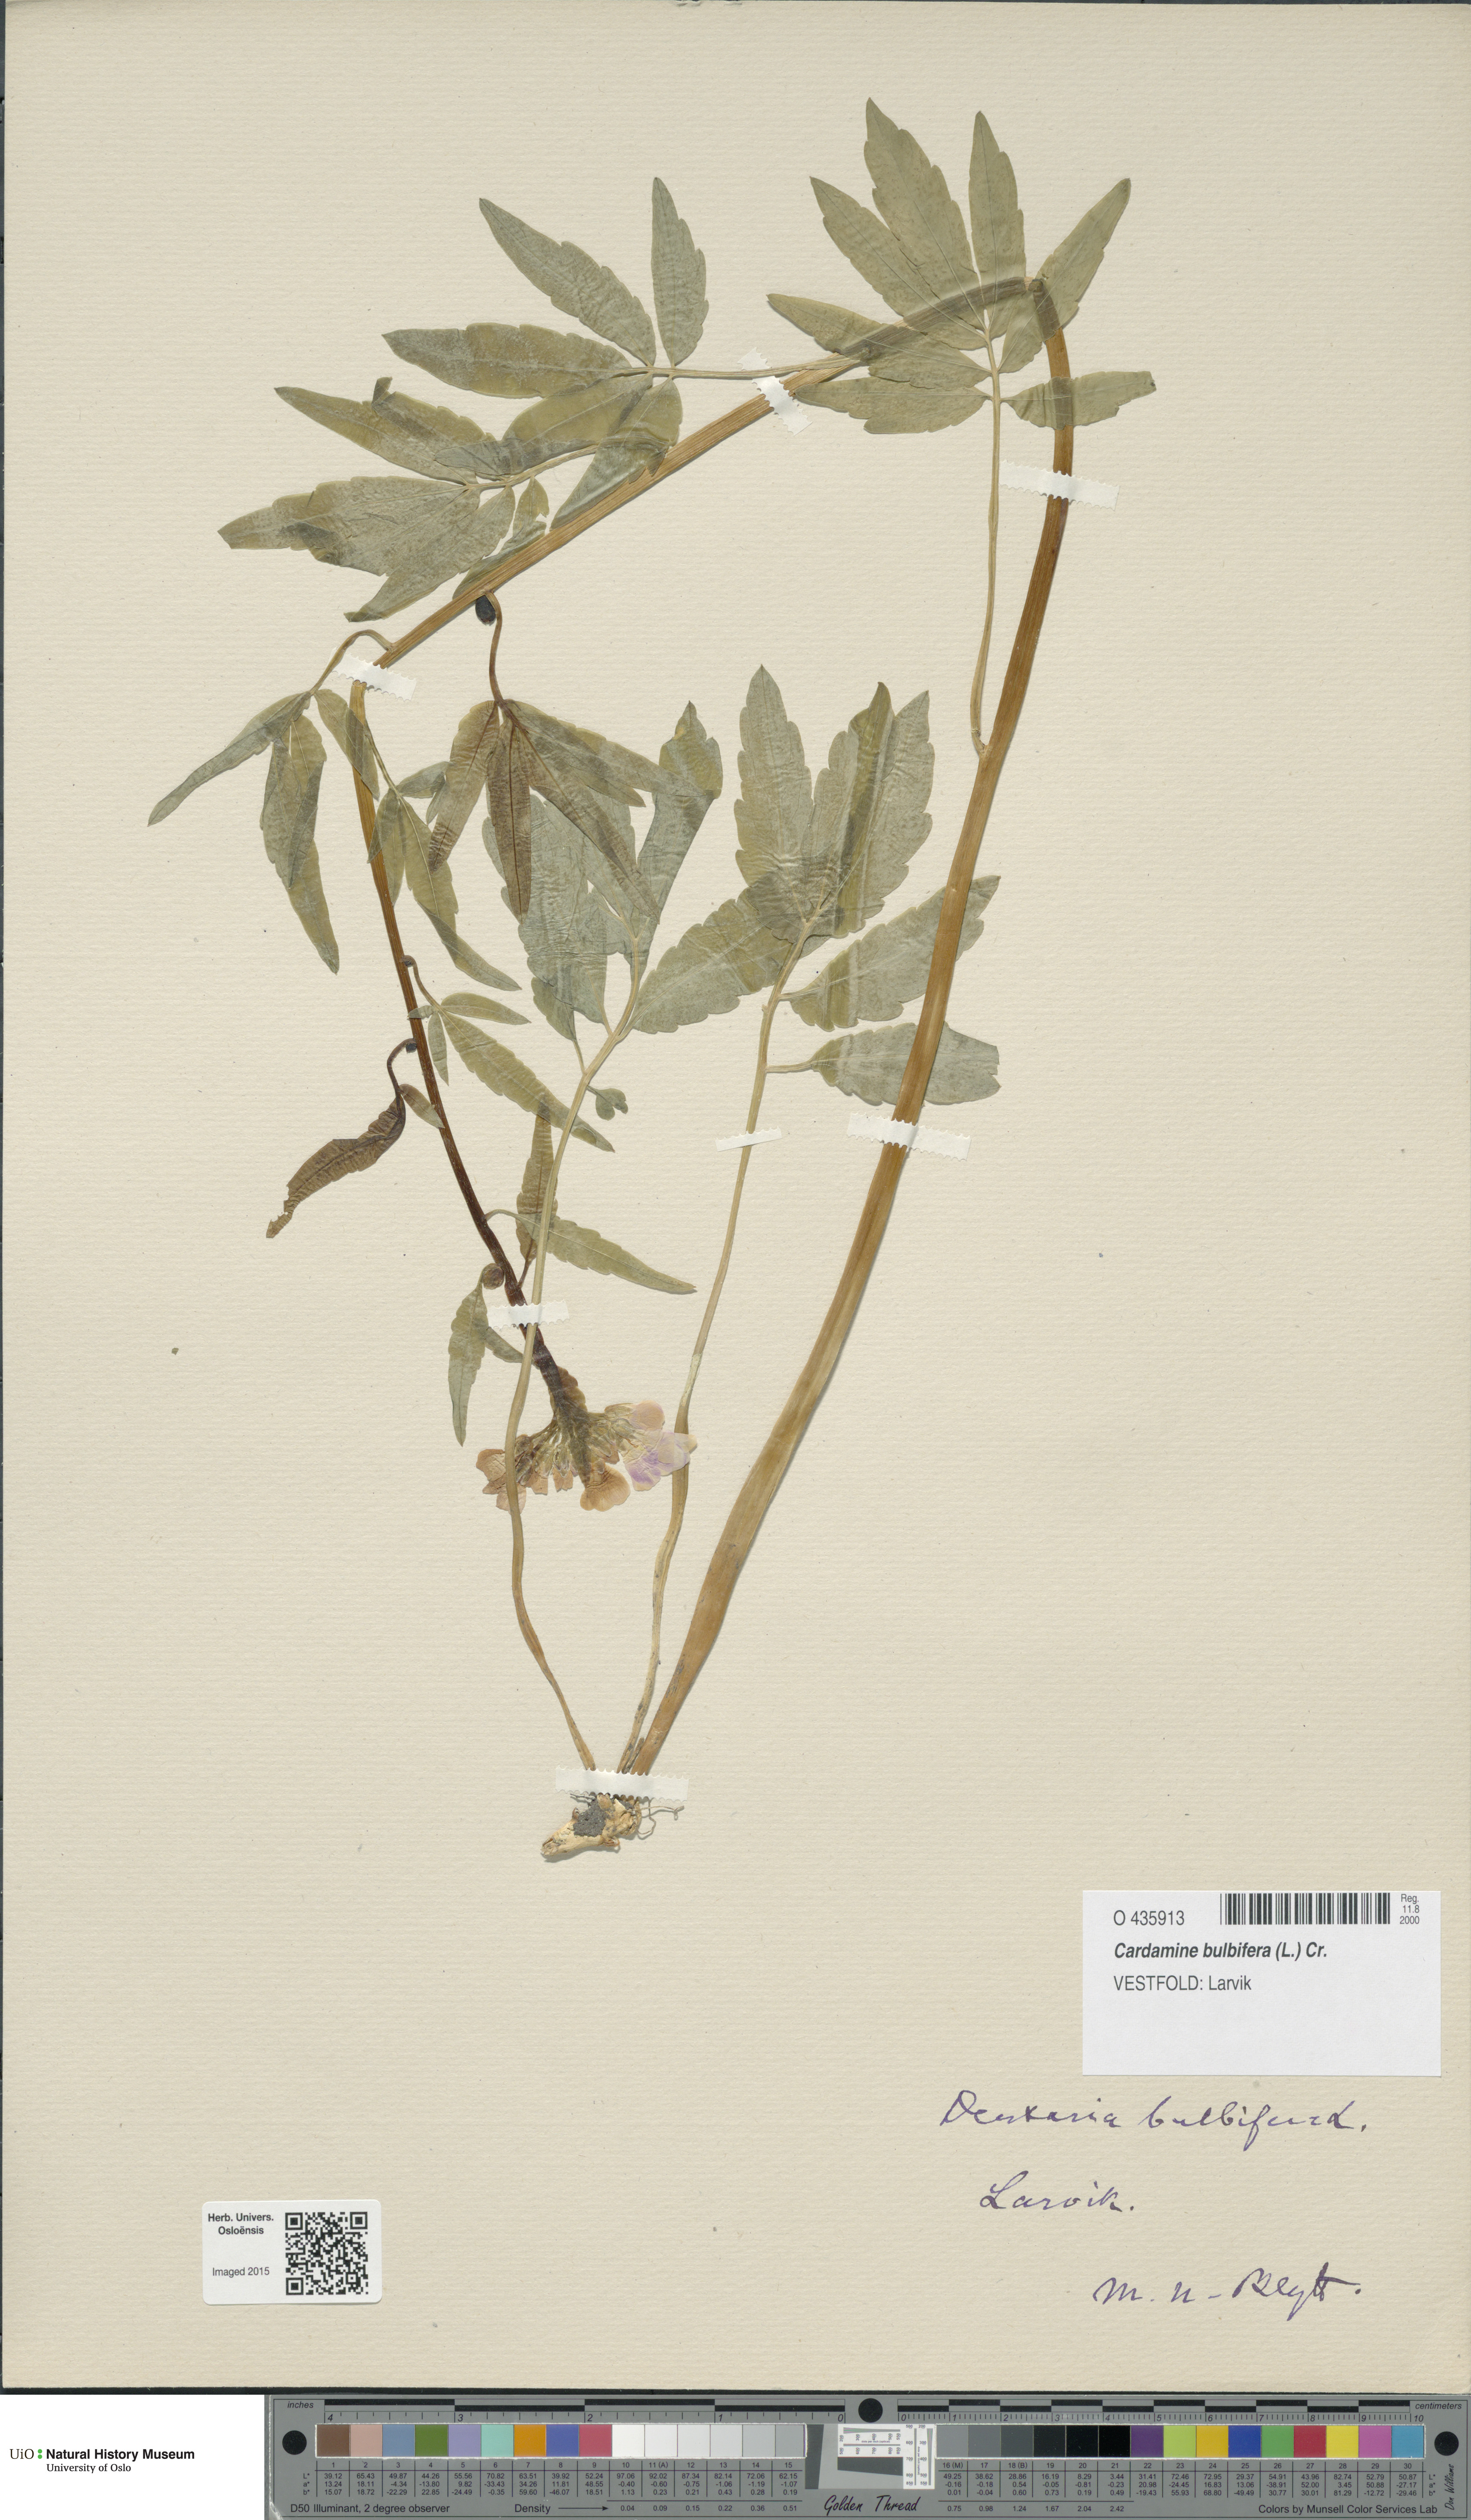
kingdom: Plantae
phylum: Tracheophyta
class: Magnoliopsida
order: Brassicales
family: Brassicaceae
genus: Cardamine
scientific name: Cardamine bulbifera
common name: Coralroot bittercress
